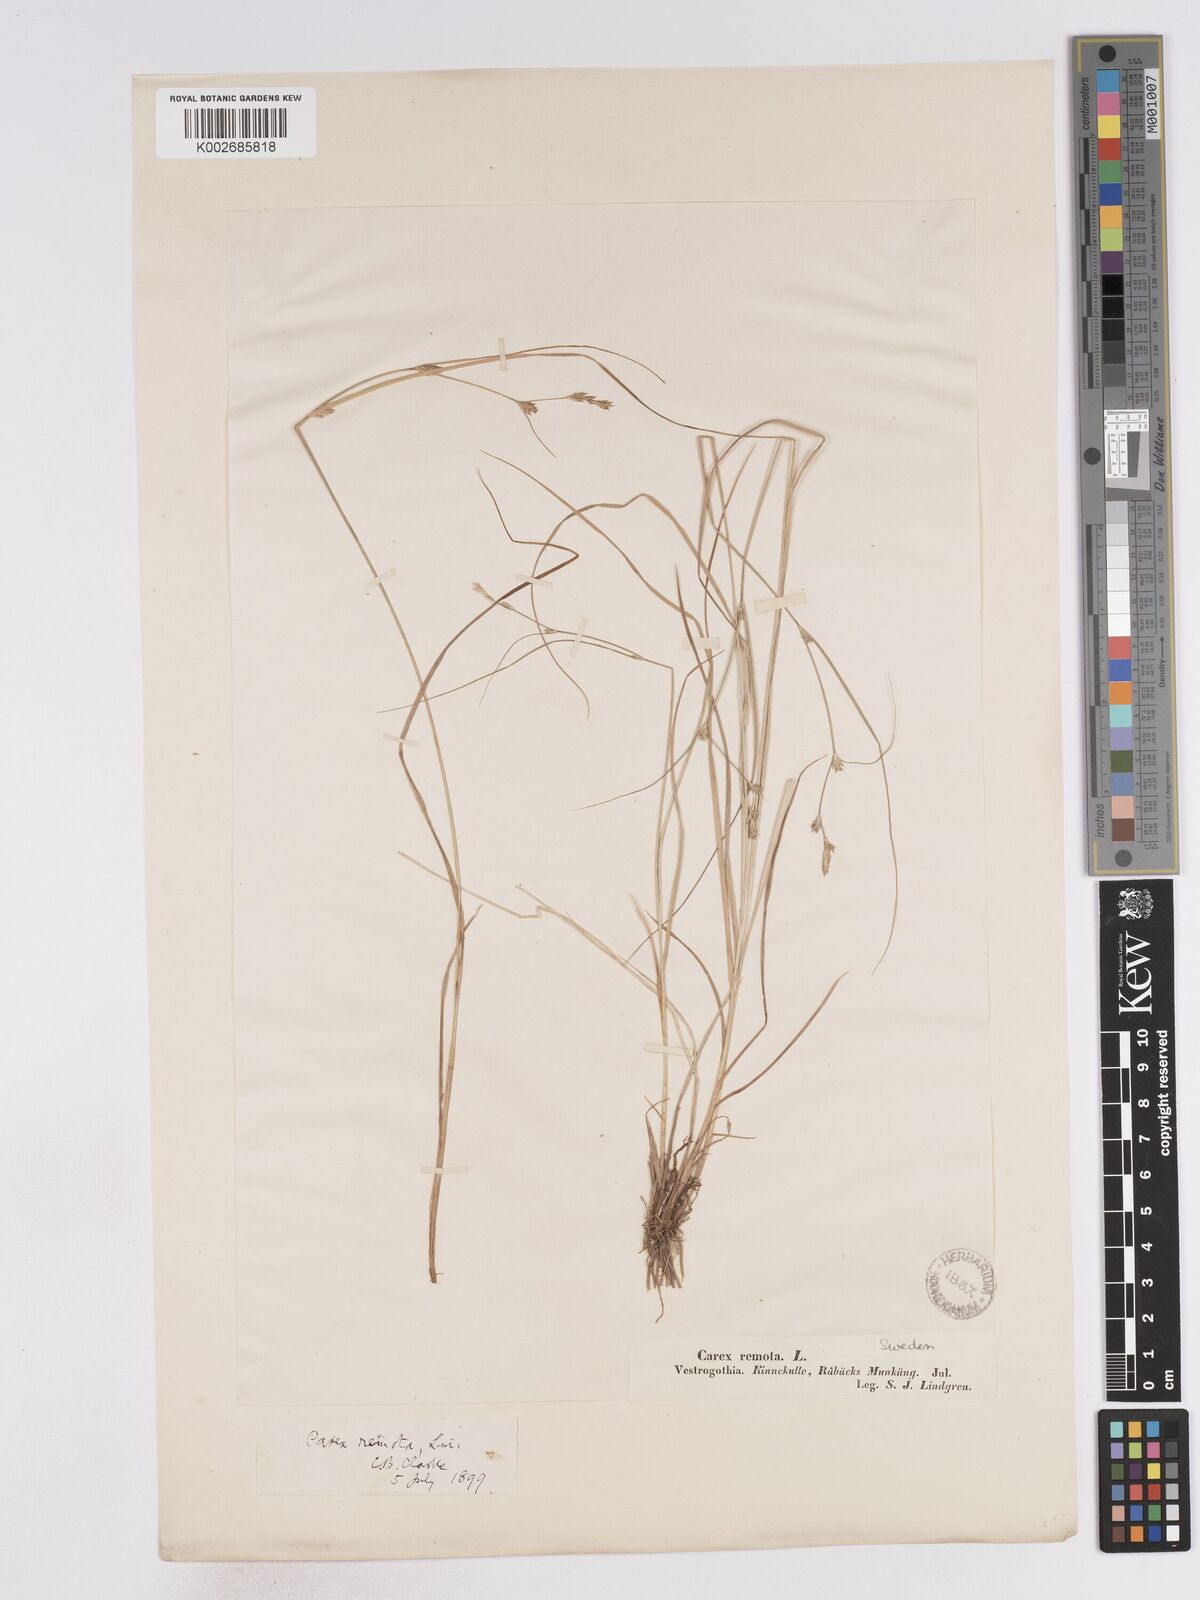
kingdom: Plantae
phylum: Tracheophyta
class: Liliopsida
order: Poales
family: Cyperaceae
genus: Carex
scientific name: Carex remota
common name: Remote sedge
